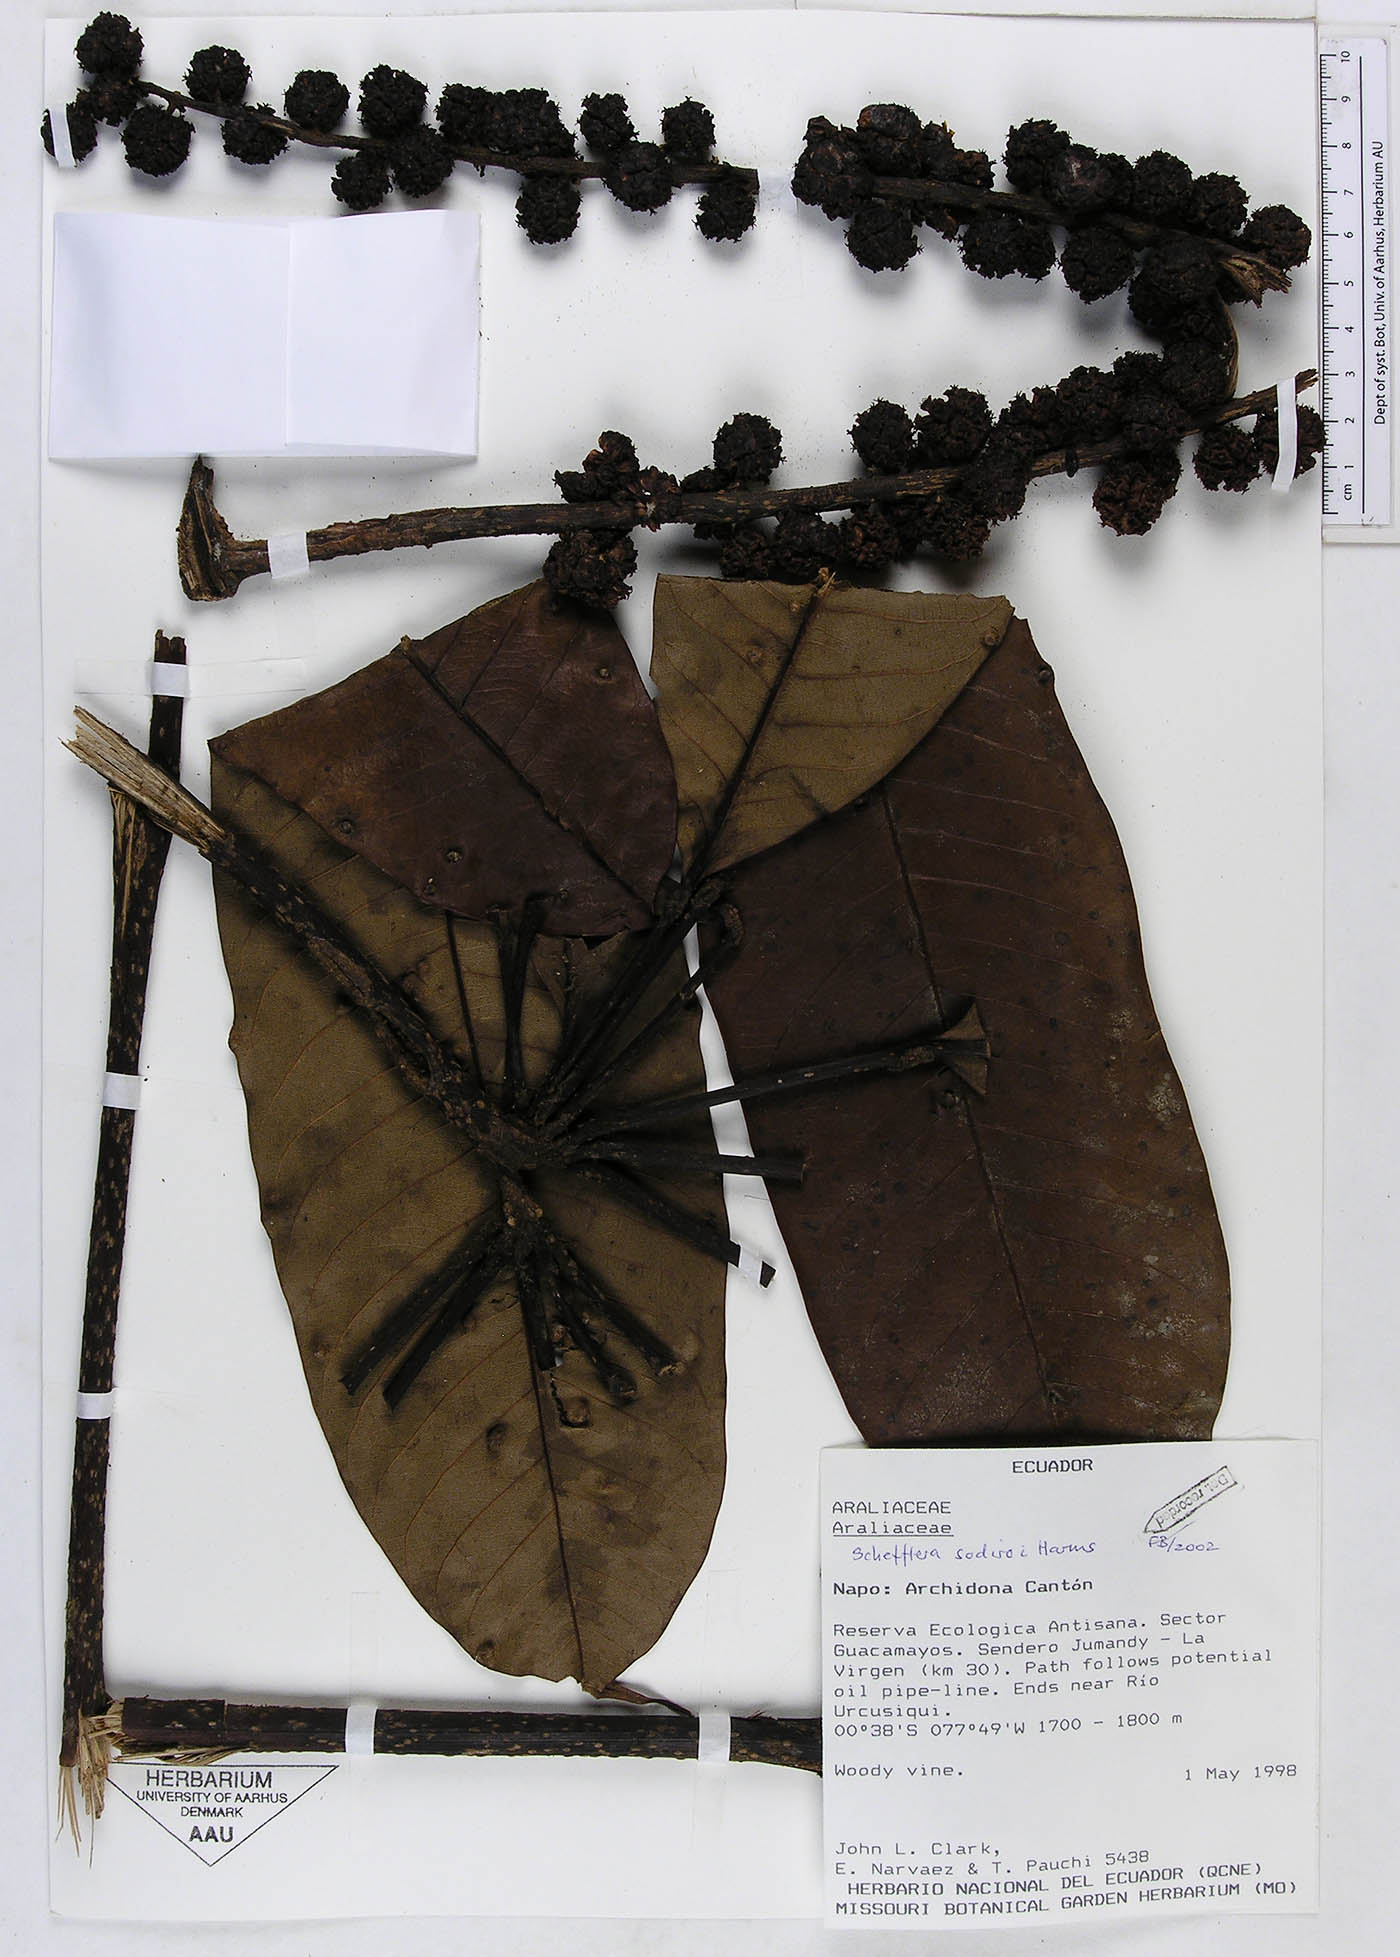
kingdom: Plantae
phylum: Tracheophyta
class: Magnoliopsida
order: Apiales
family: Araliaceae
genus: Sciodaphyllum
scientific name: Sciodaphyllum
